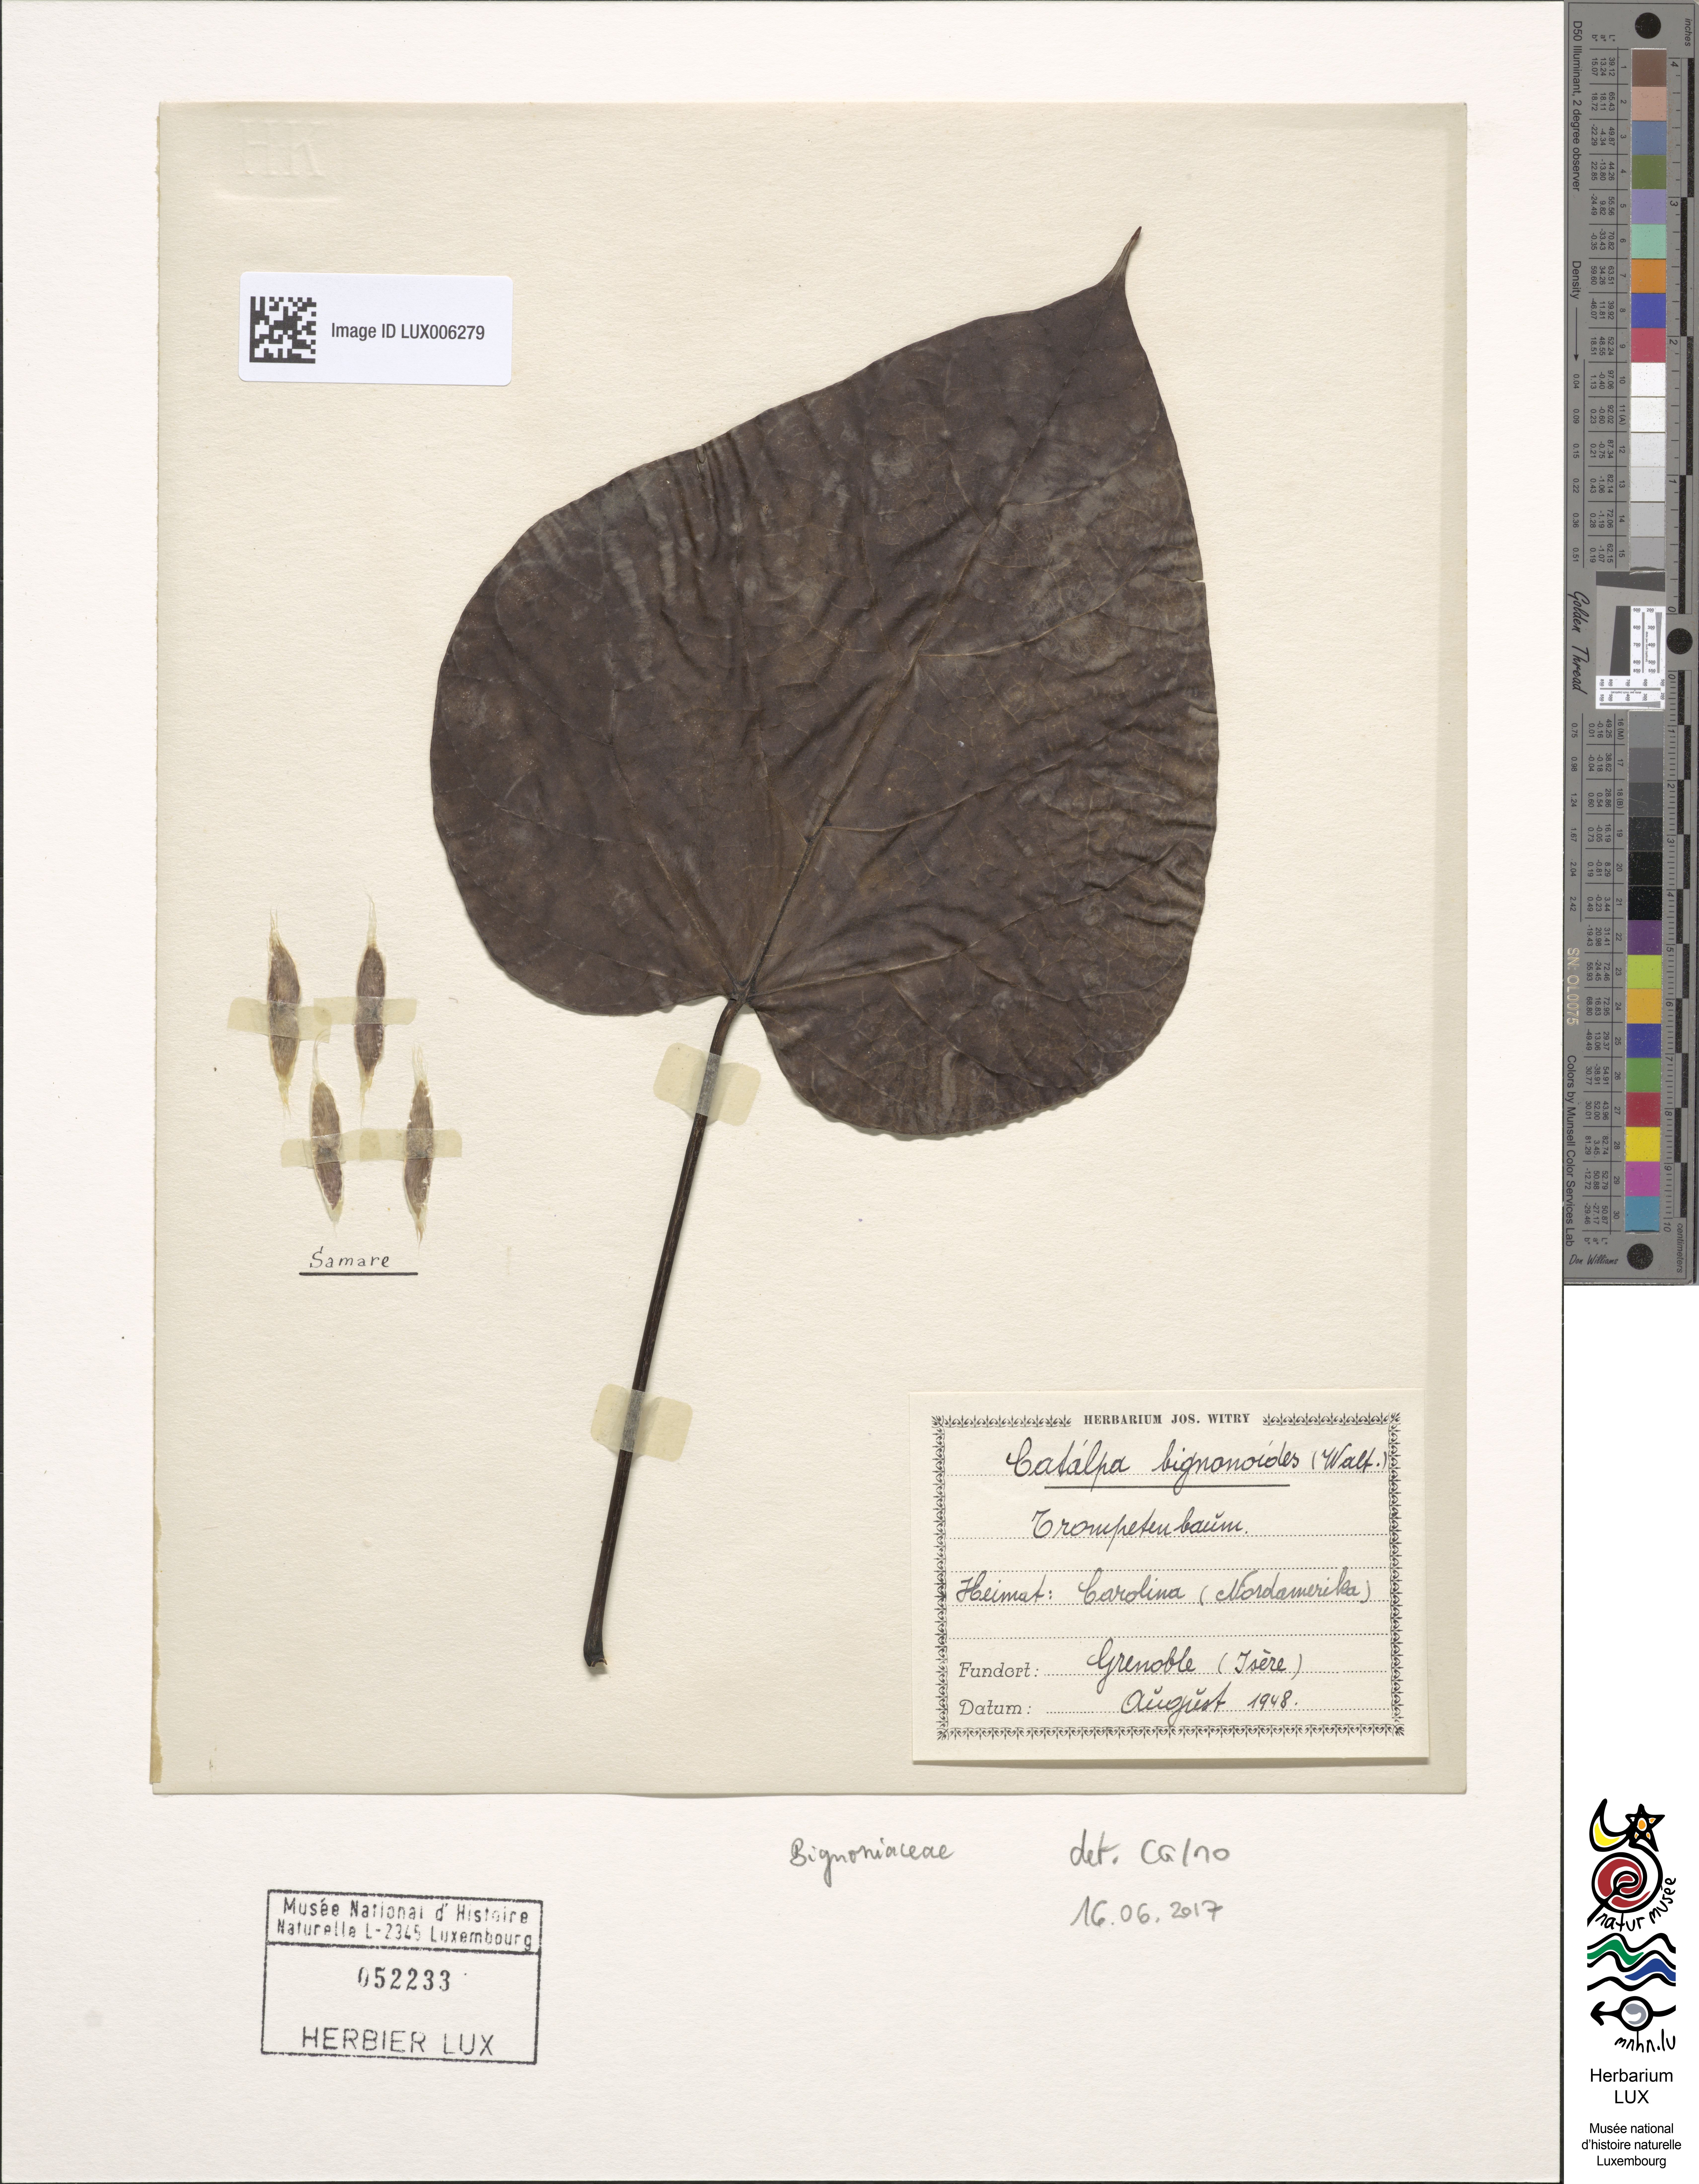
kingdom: Plantae
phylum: Tracheophyta
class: Magnoliopsida
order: Lamiales
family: Bignoniaceae
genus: Catalpa
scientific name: Catalpa bignonioides
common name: Southern catalpa
